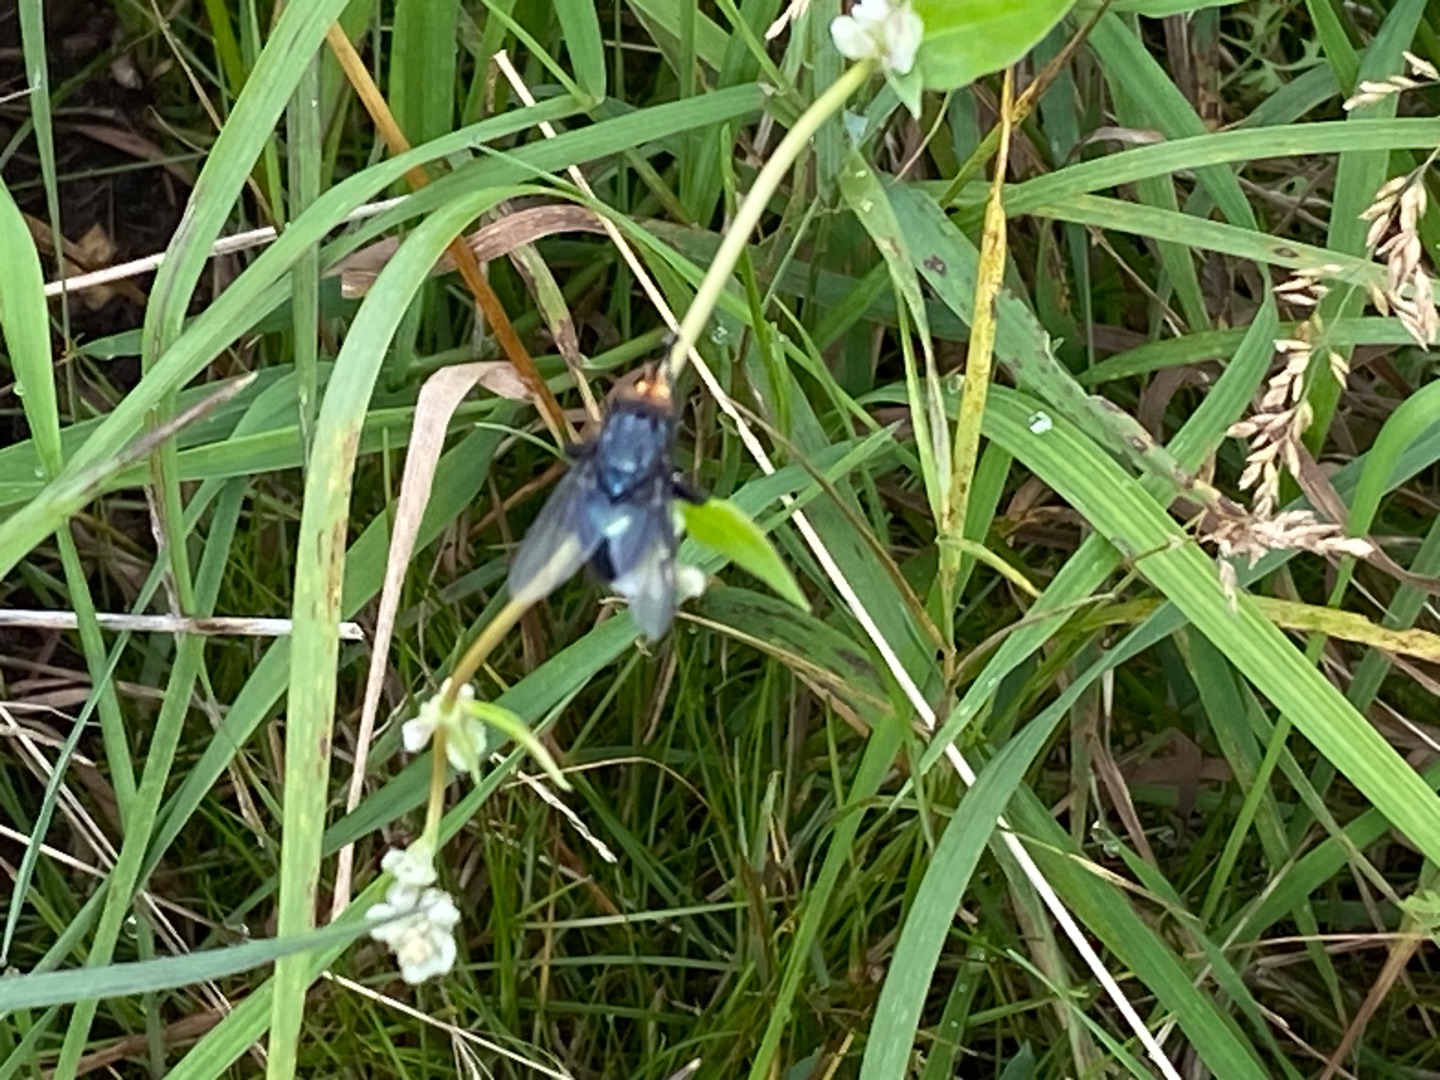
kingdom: Animalia
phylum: Arthropoda
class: Insecta
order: Diptera
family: Calliphoridae
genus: Cynomya
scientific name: Cynomya mortuorum
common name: Dødsflue
